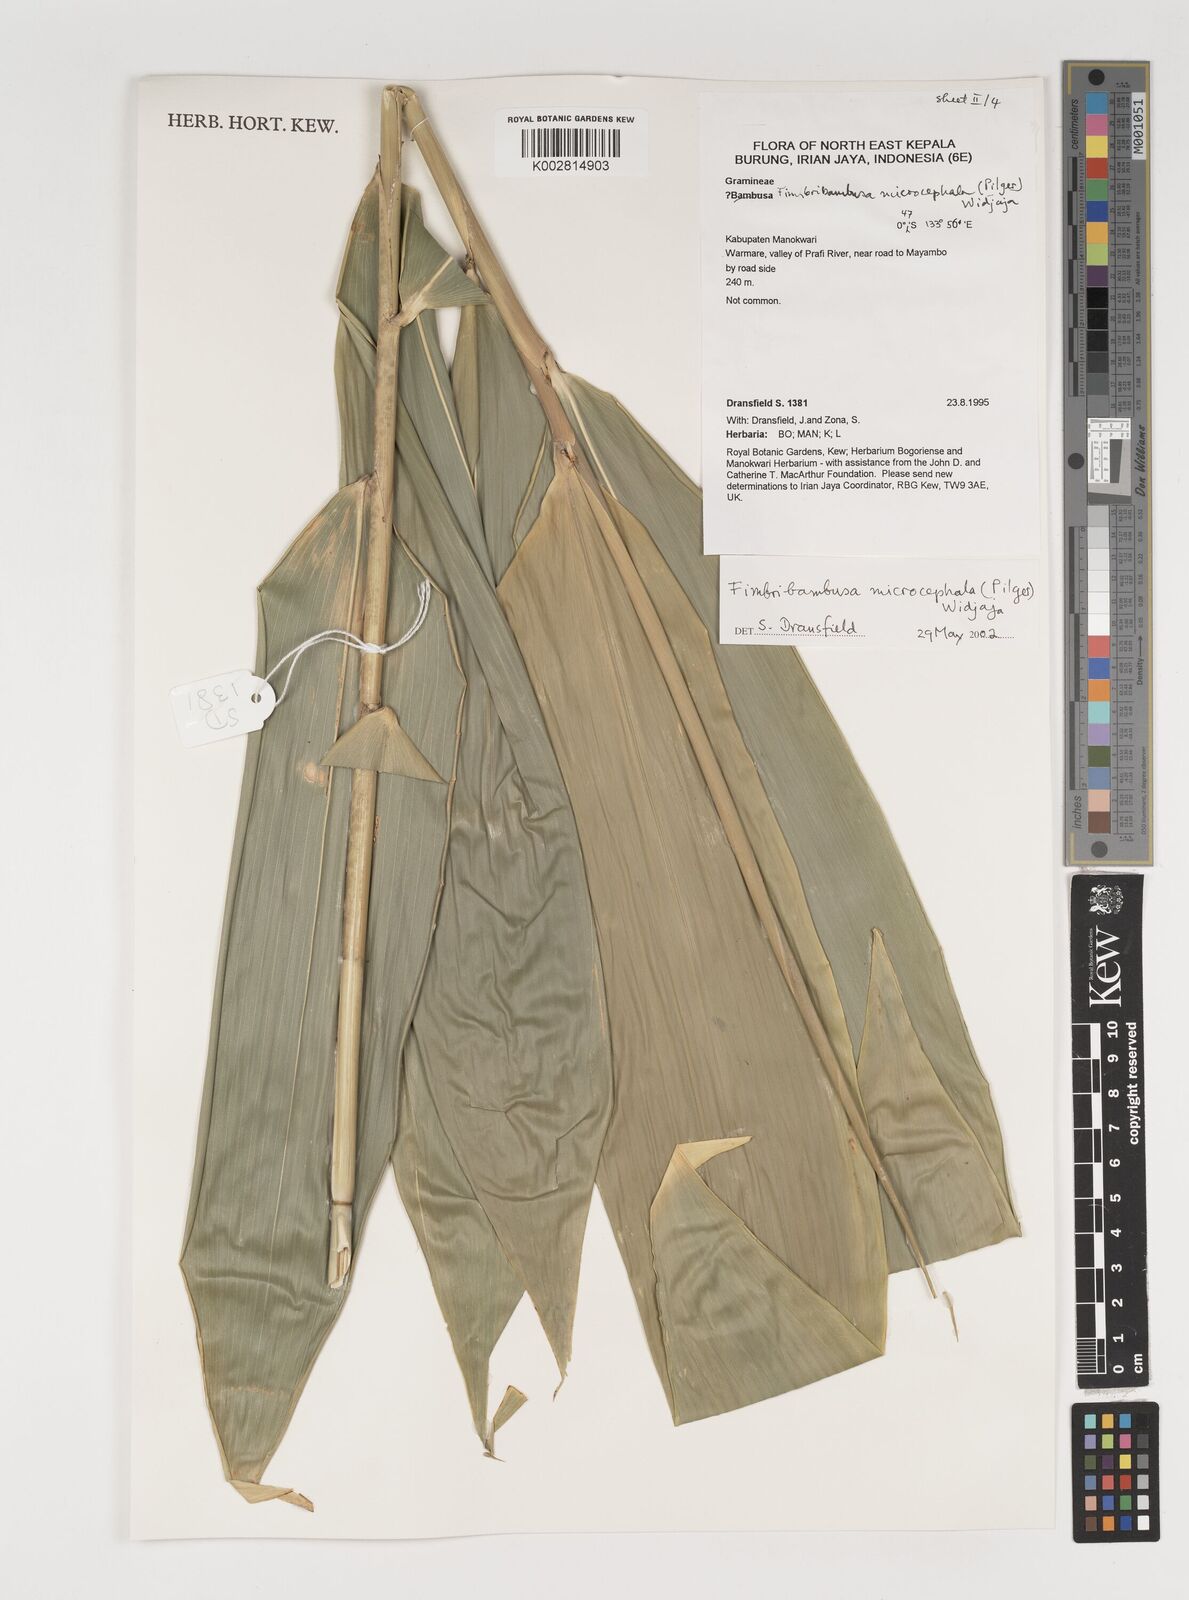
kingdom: Plantae
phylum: Tracheophyta
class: Liliopsida
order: Poales
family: Poaceae
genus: Fimbribambusa
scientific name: Fimbribambusa microcephala
